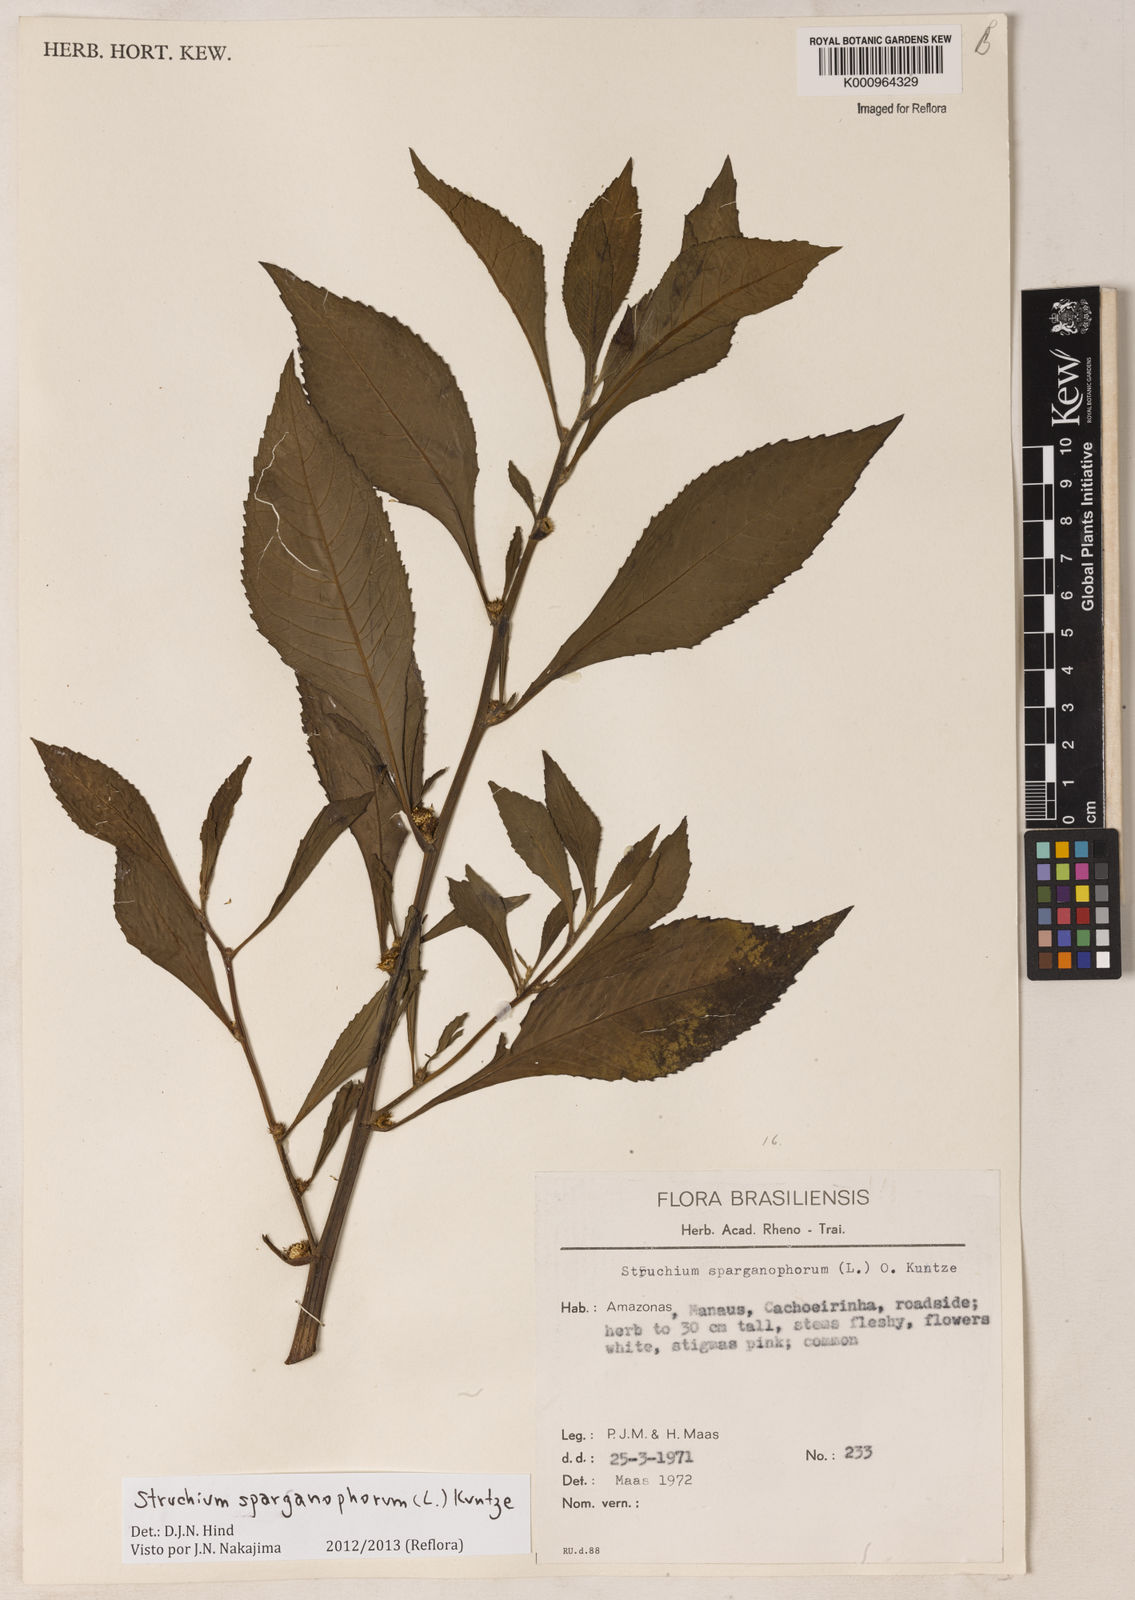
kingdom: Plantae
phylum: Tracheophyta
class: Magnoliopsida
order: Asterales
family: Asteraceae
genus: Struchium
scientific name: Struchium sparganophorum
